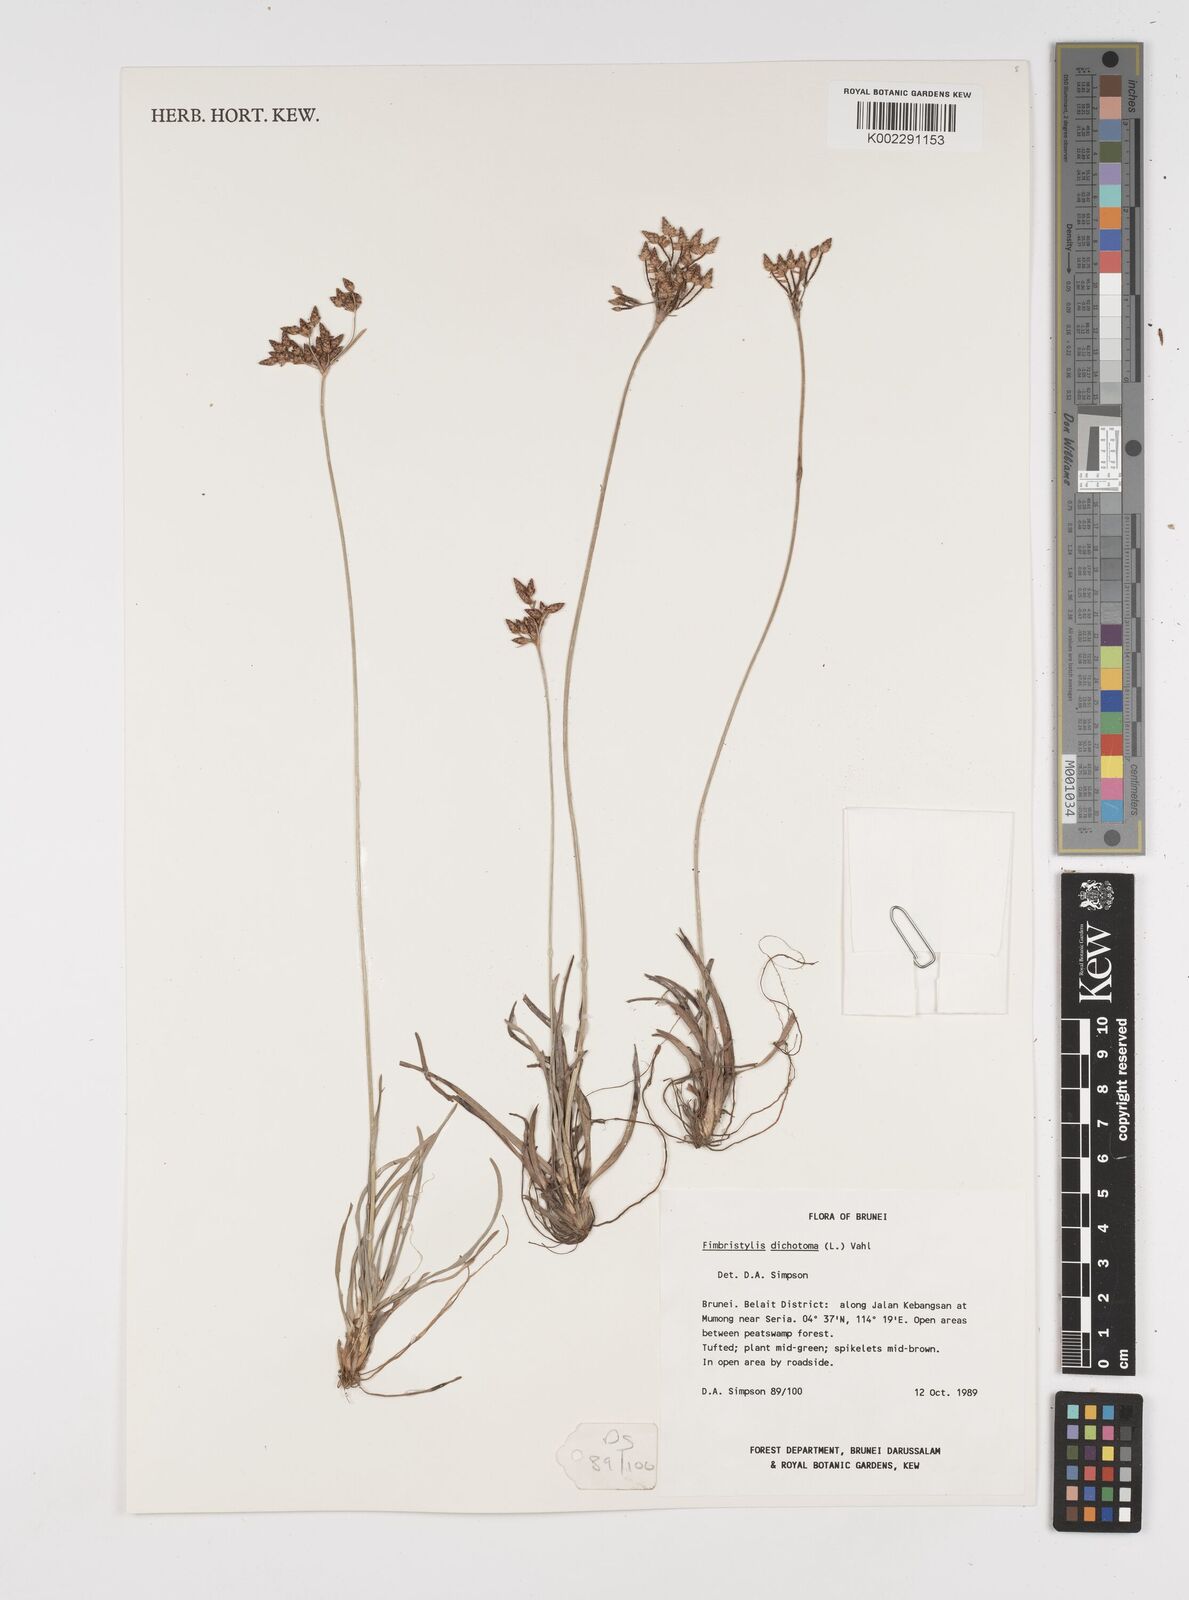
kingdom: Plantae
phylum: Tracheophyta
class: Liliopsida
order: Poales
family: Cyperaceae
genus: Fimbristylis
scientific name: Fimbristylis dichotoma
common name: Forked fimbry
